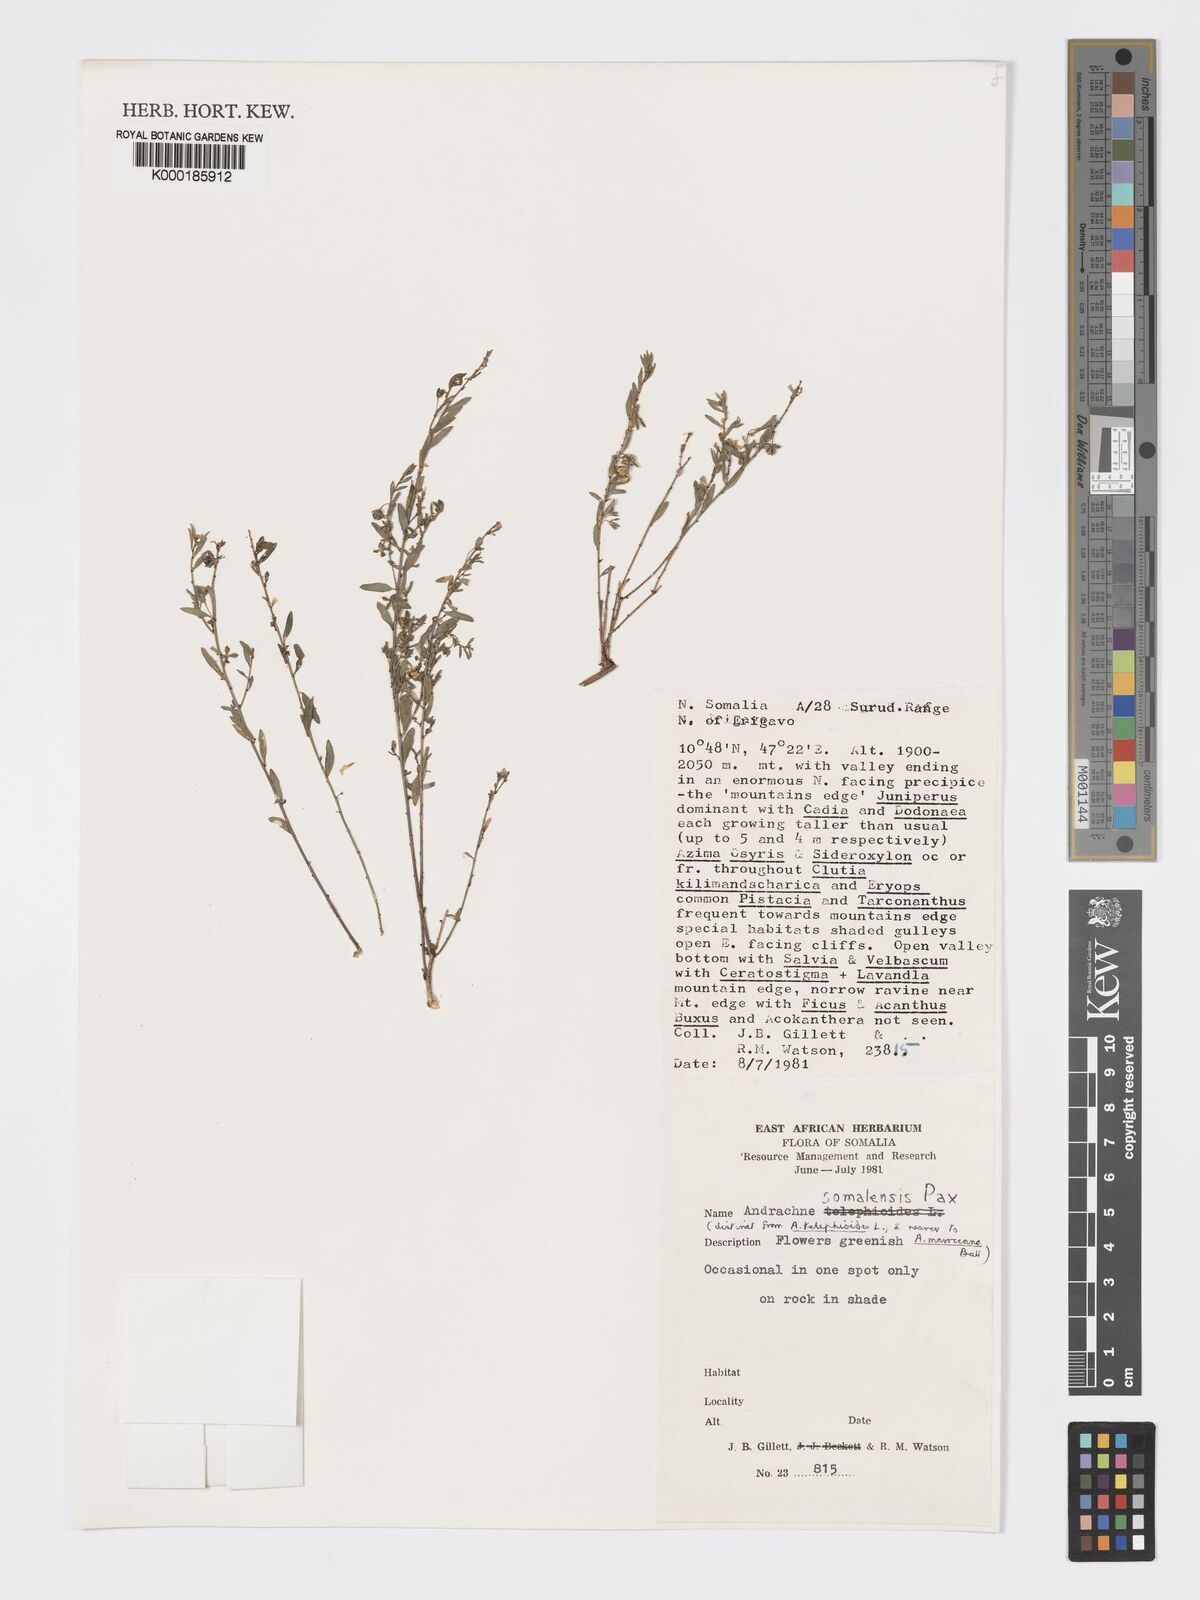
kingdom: Plantae
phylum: Tracheophyta
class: Magnoliopsida
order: Malpighiales
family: Phyllanthaceae
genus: Andrachne
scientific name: Andrachne schweinfurthii
